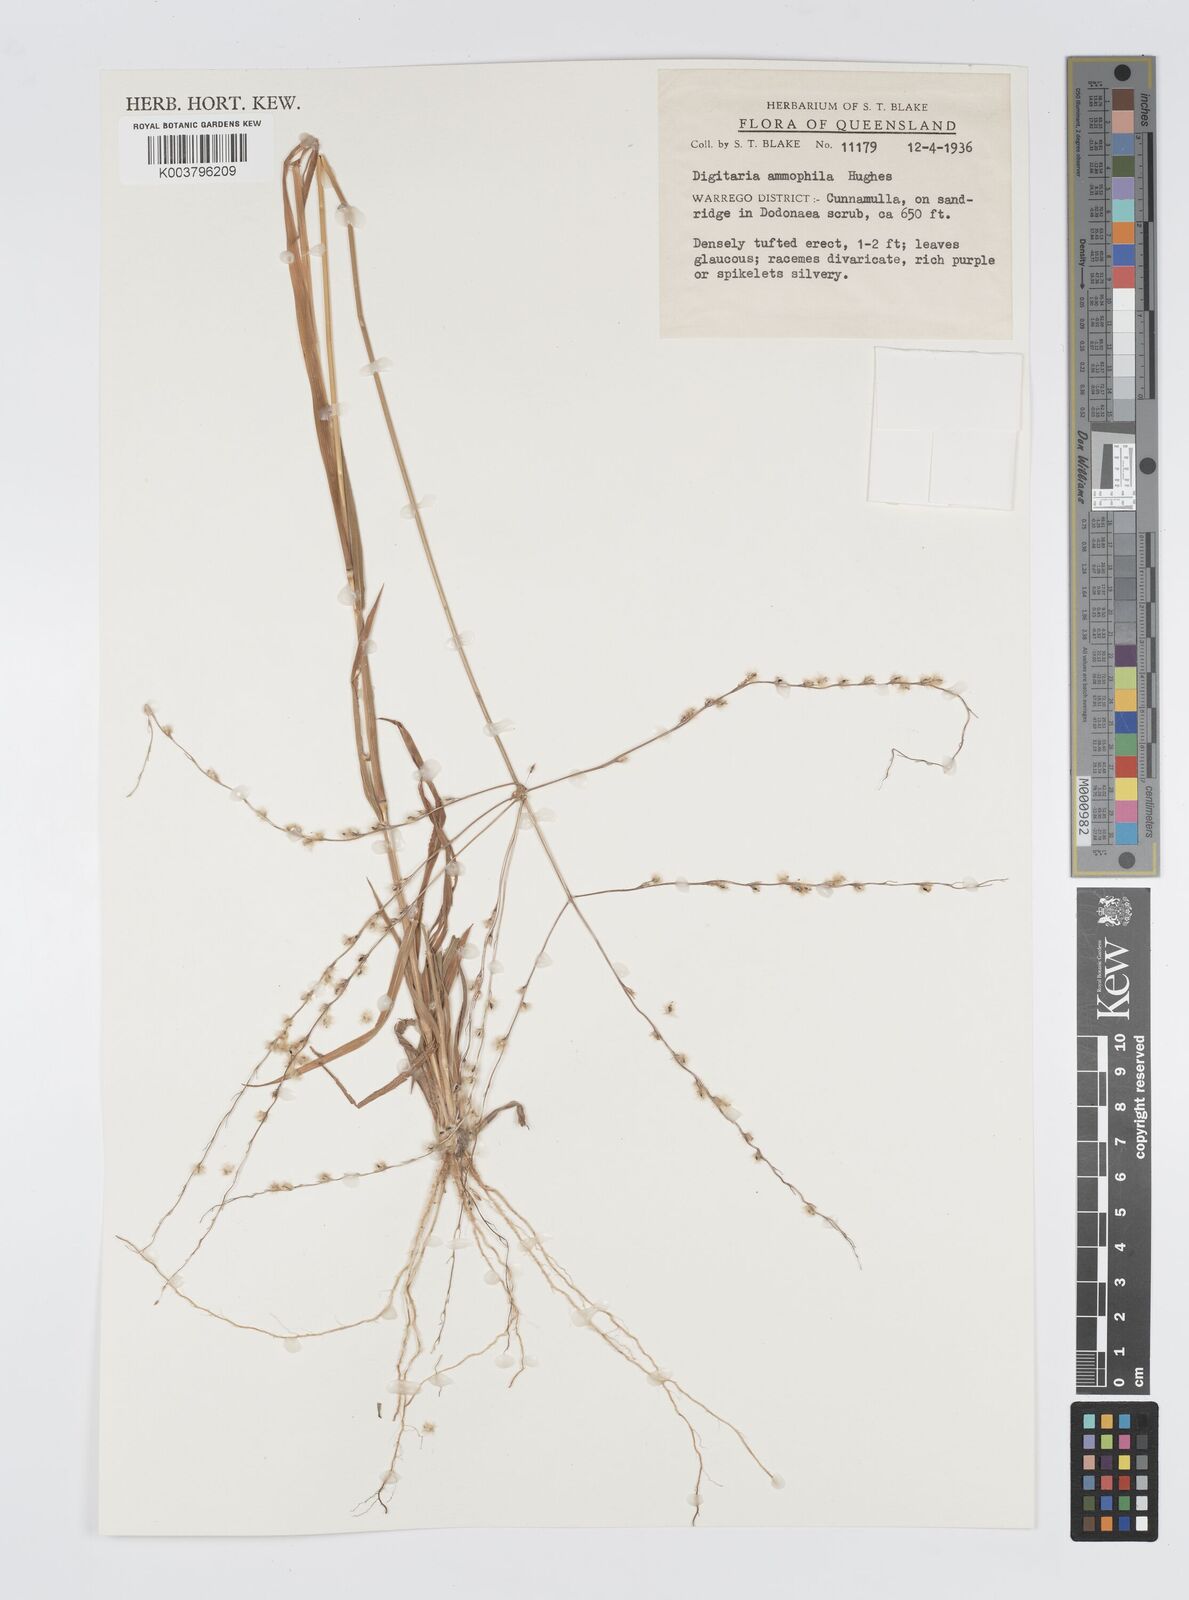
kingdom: Plantae
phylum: Tracheophyta
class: Liliopsida
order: Poales
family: Poaceae
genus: Digitaria
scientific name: Digitaria ammophila
